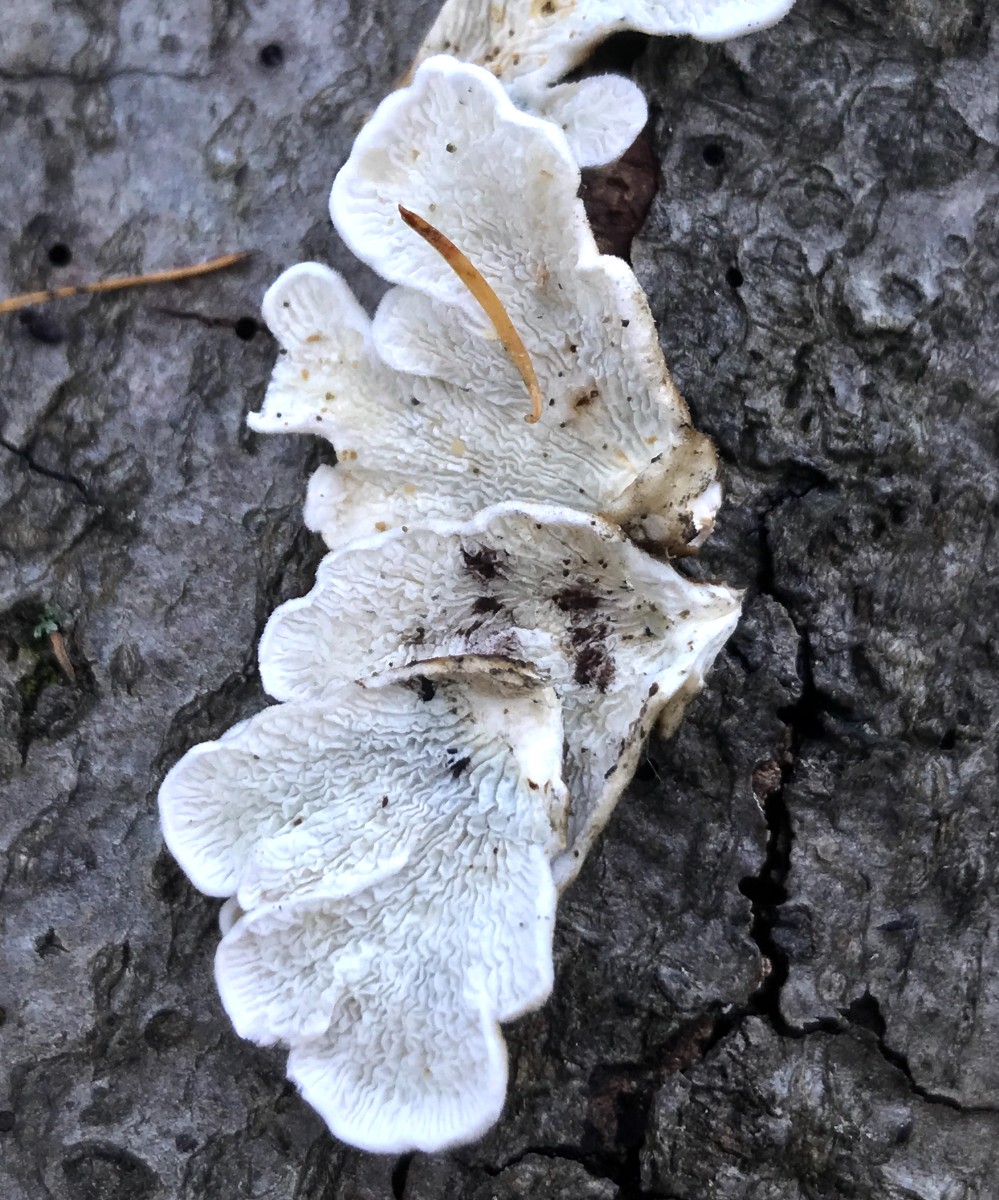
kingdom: Fungi
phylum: Basidiomycota
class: Agaricomycetes
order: Amylocorticiales
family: Amylocorticiaceae
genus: Plicaturopsis
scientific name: Plicaturopsis crispa
